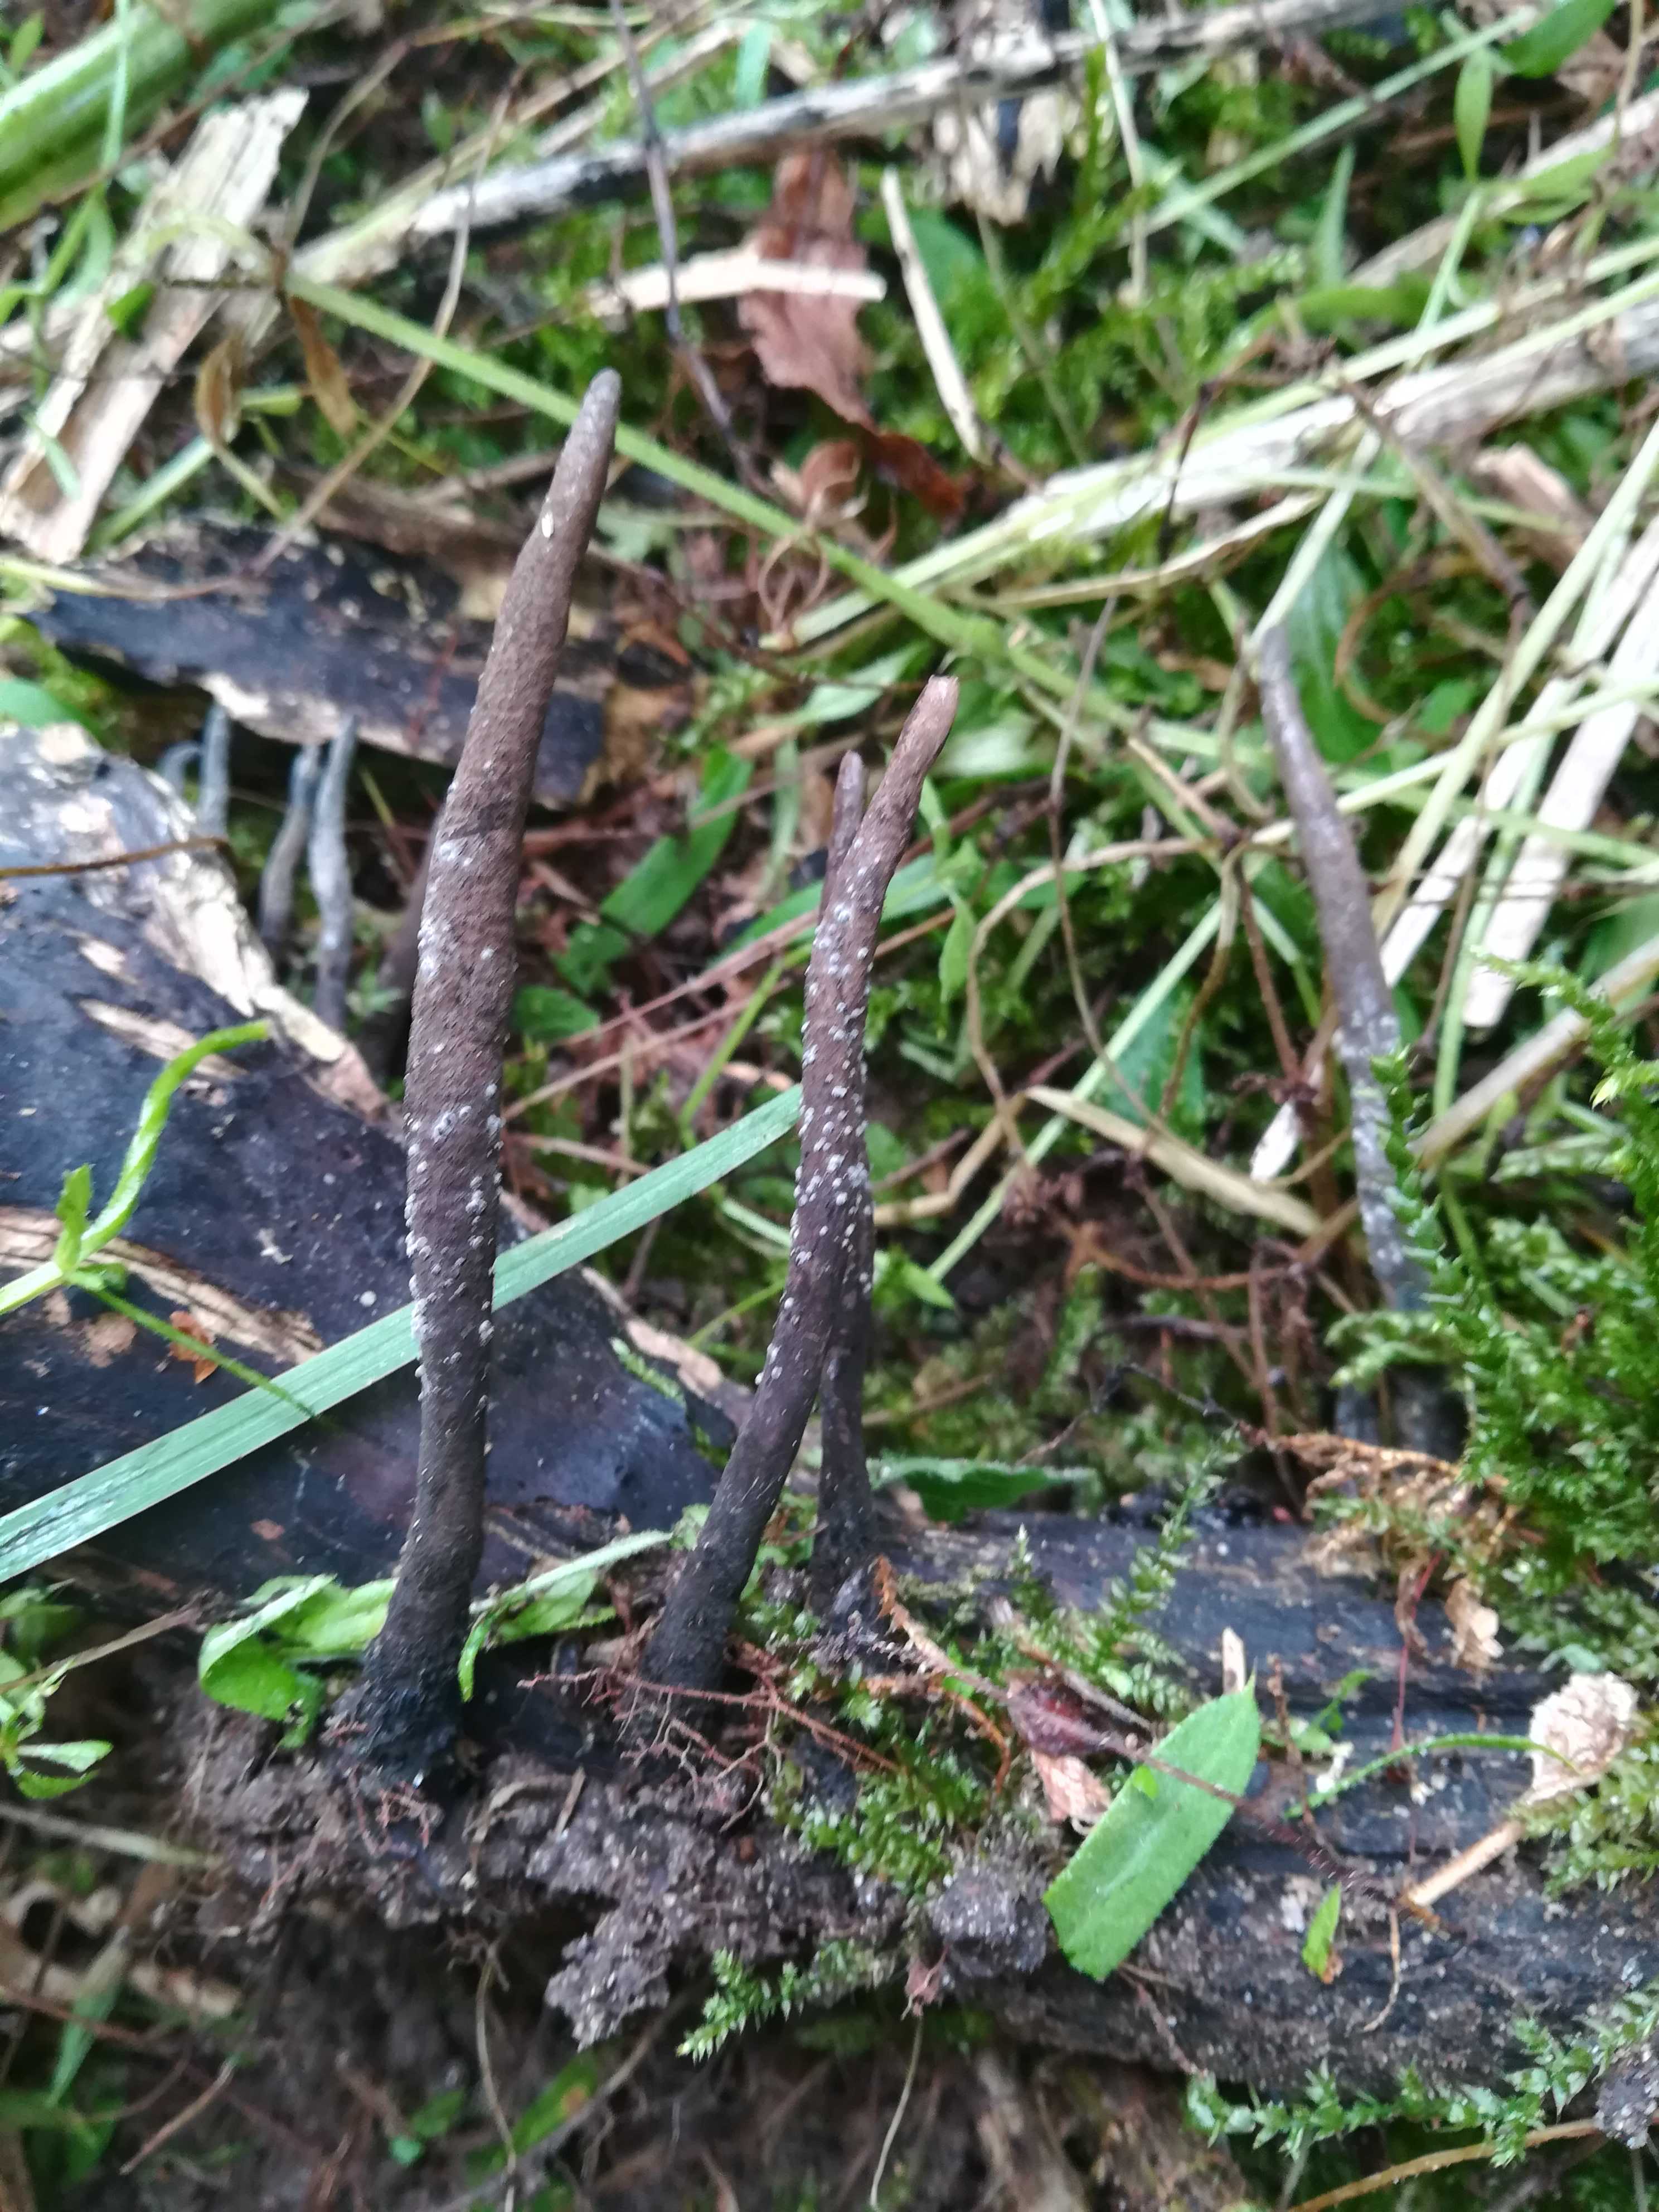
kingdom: Fungi
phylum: Ascomycota
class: Sordariomycetes
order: Xylariales
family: Xylariaceae
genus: Xylaria
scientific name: Xylaria longipes
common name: slank stødsvamp
